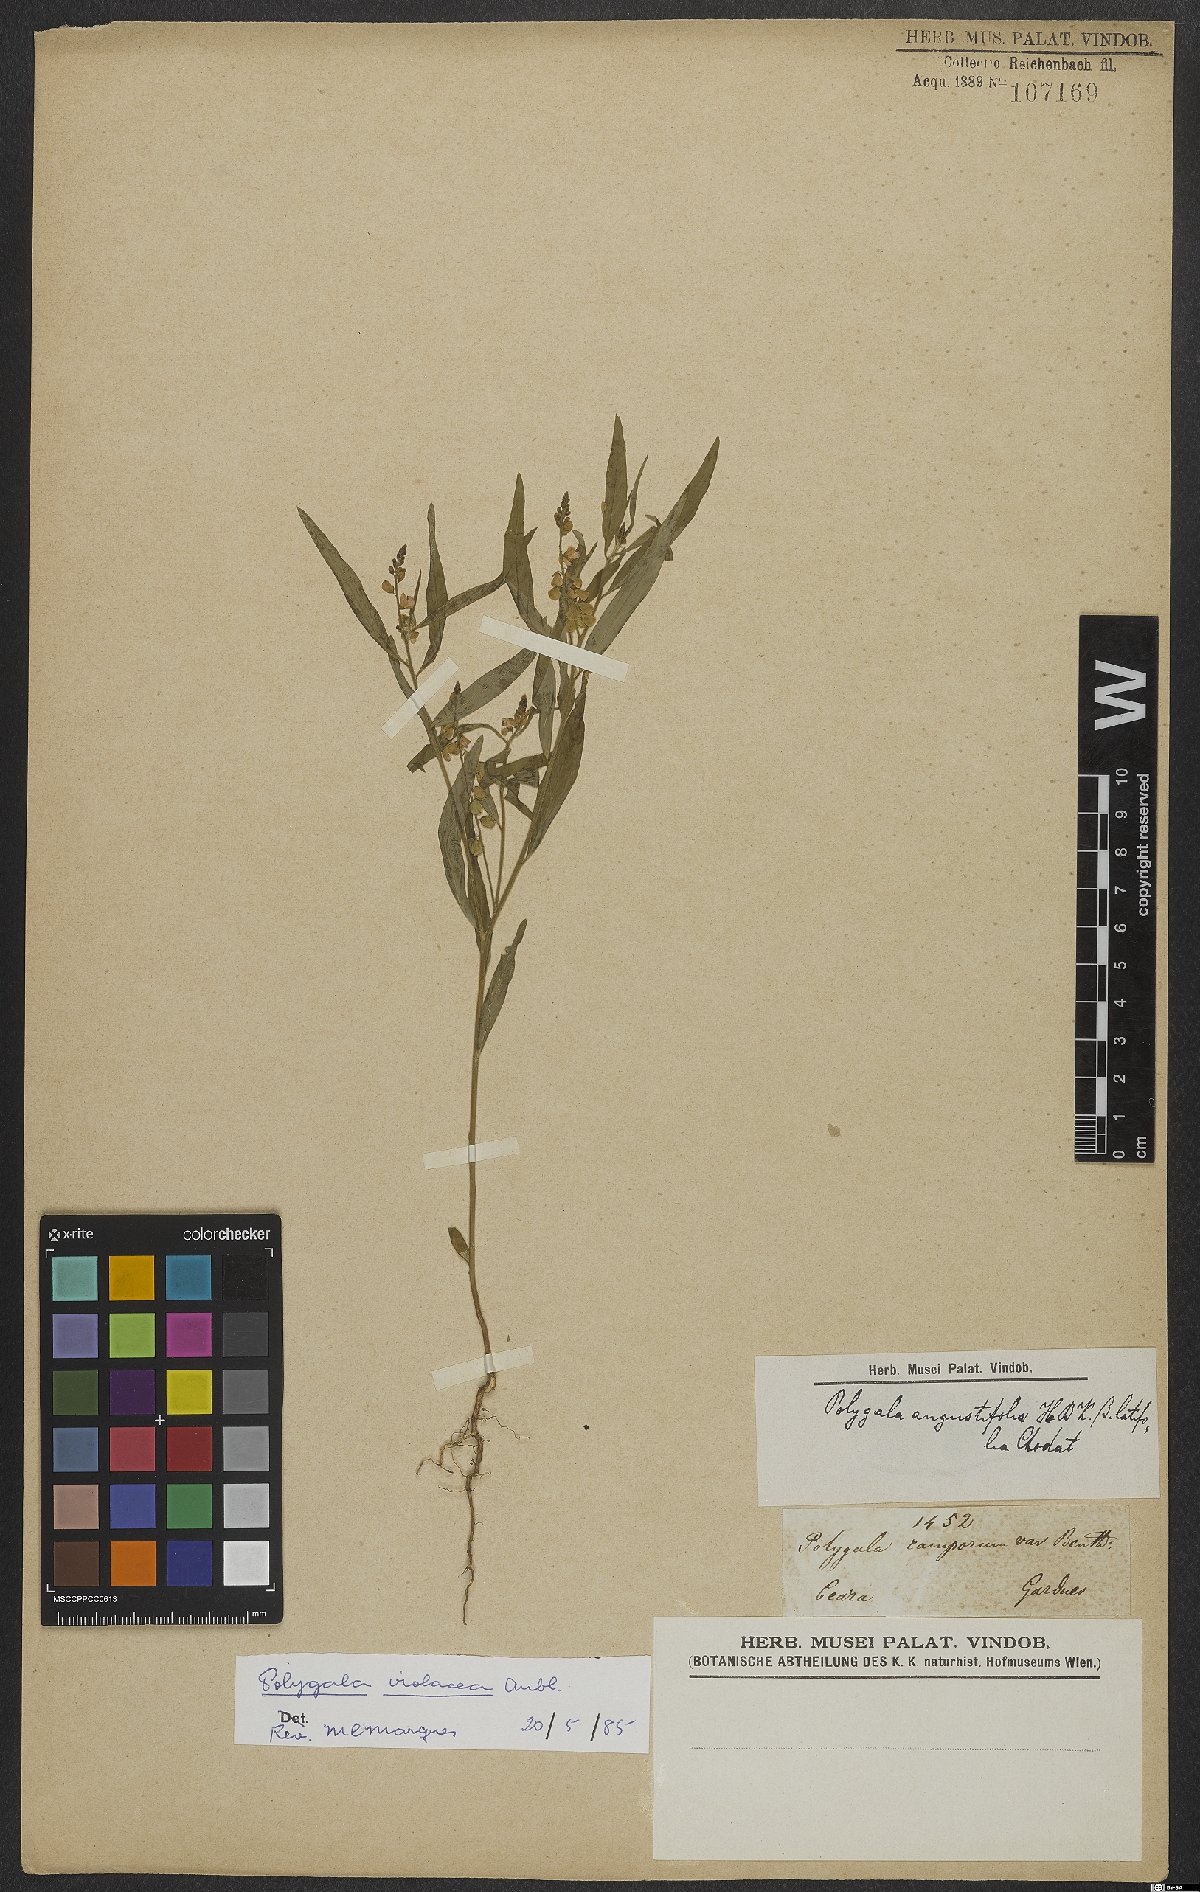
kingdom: Plantae
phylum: Tracheophyta
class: Magnoliopsida
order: Fabales
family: Polygalaceae
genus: Asemeia
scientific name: Asemeia violacea
